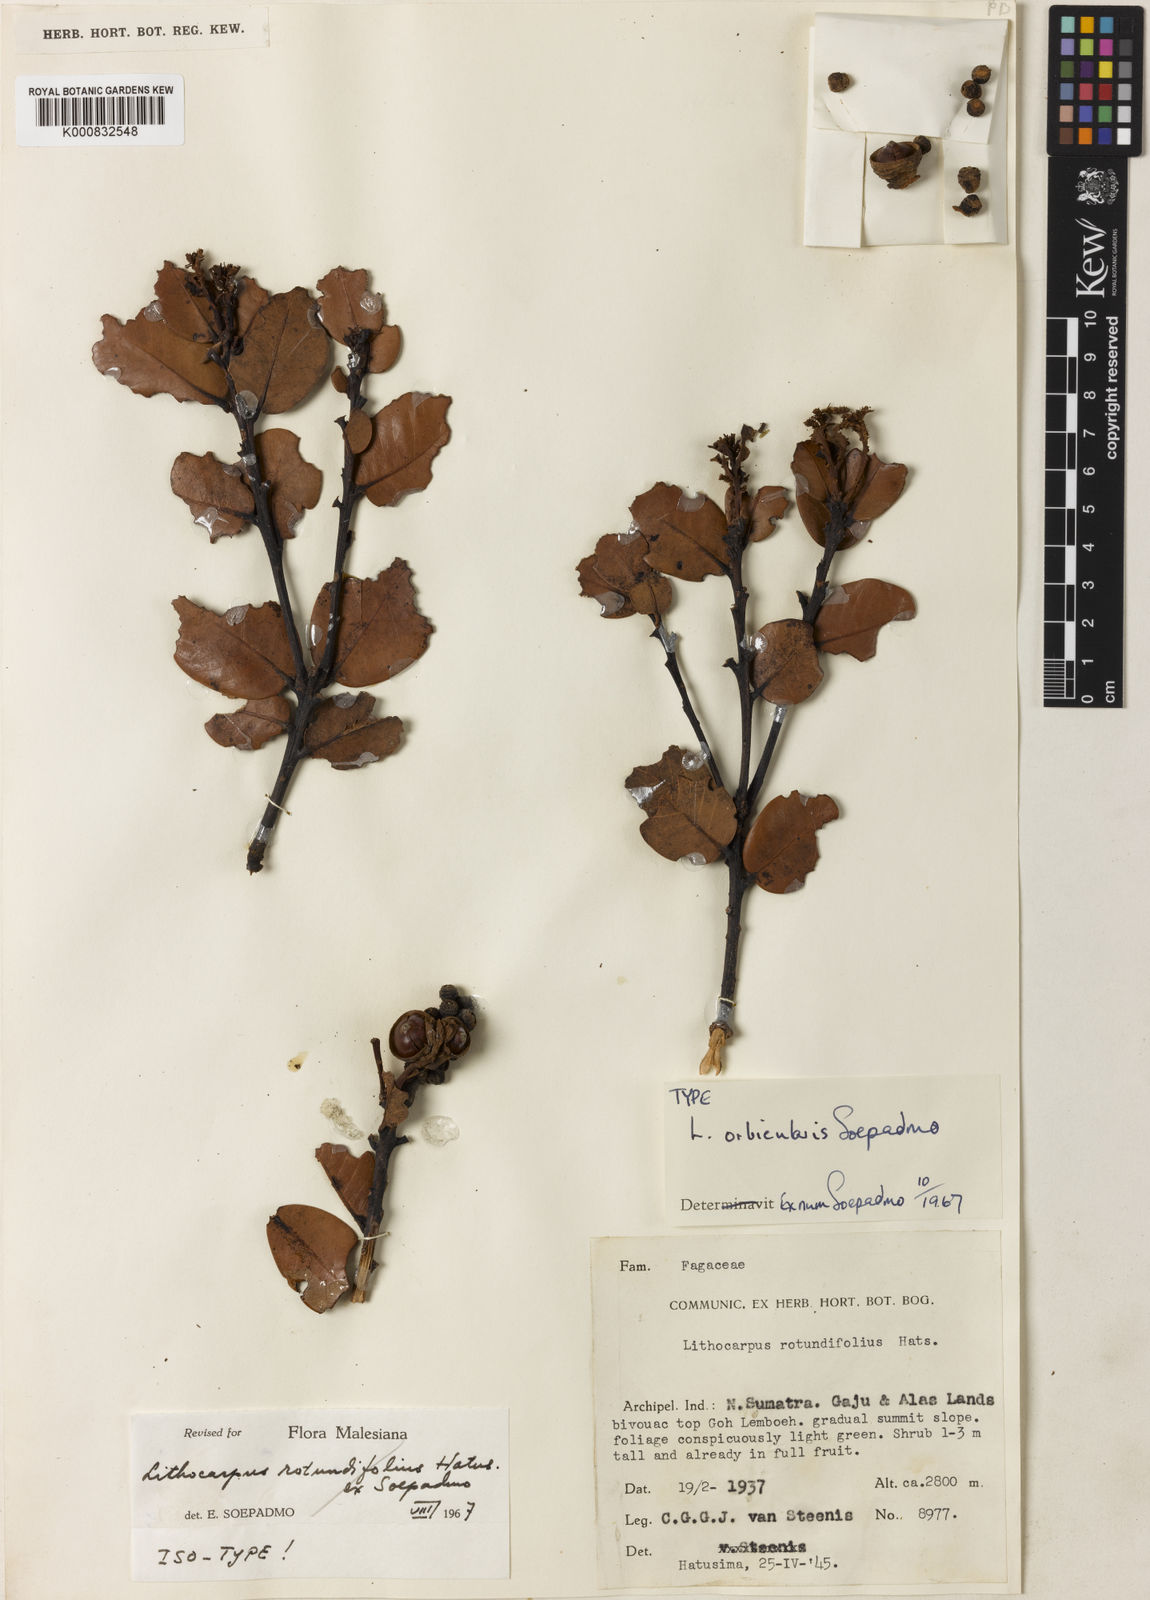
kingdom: Plantae
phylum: Tracheophyta
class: Magnoliopsida
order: Fagales
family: Fagaceae
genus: Lithocarpus
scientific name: Lithocarpus orbicularis
